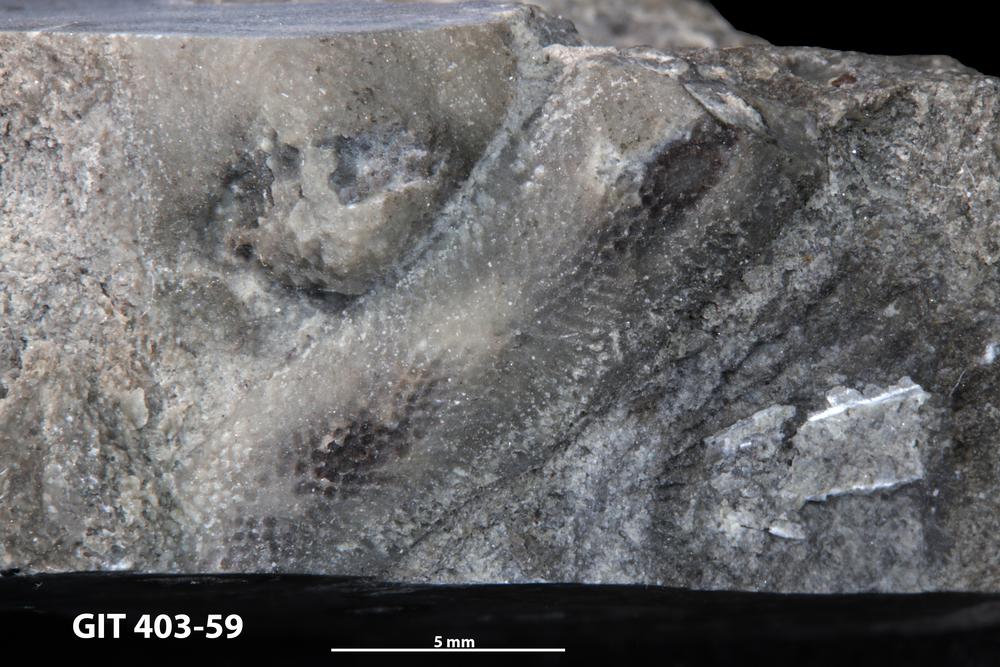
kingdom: Animalia
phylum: Bryozoa
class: Stenolaemata
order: Cystoporida
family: Fistuliporidae
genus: Fistulipora
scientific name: Fistulipora
